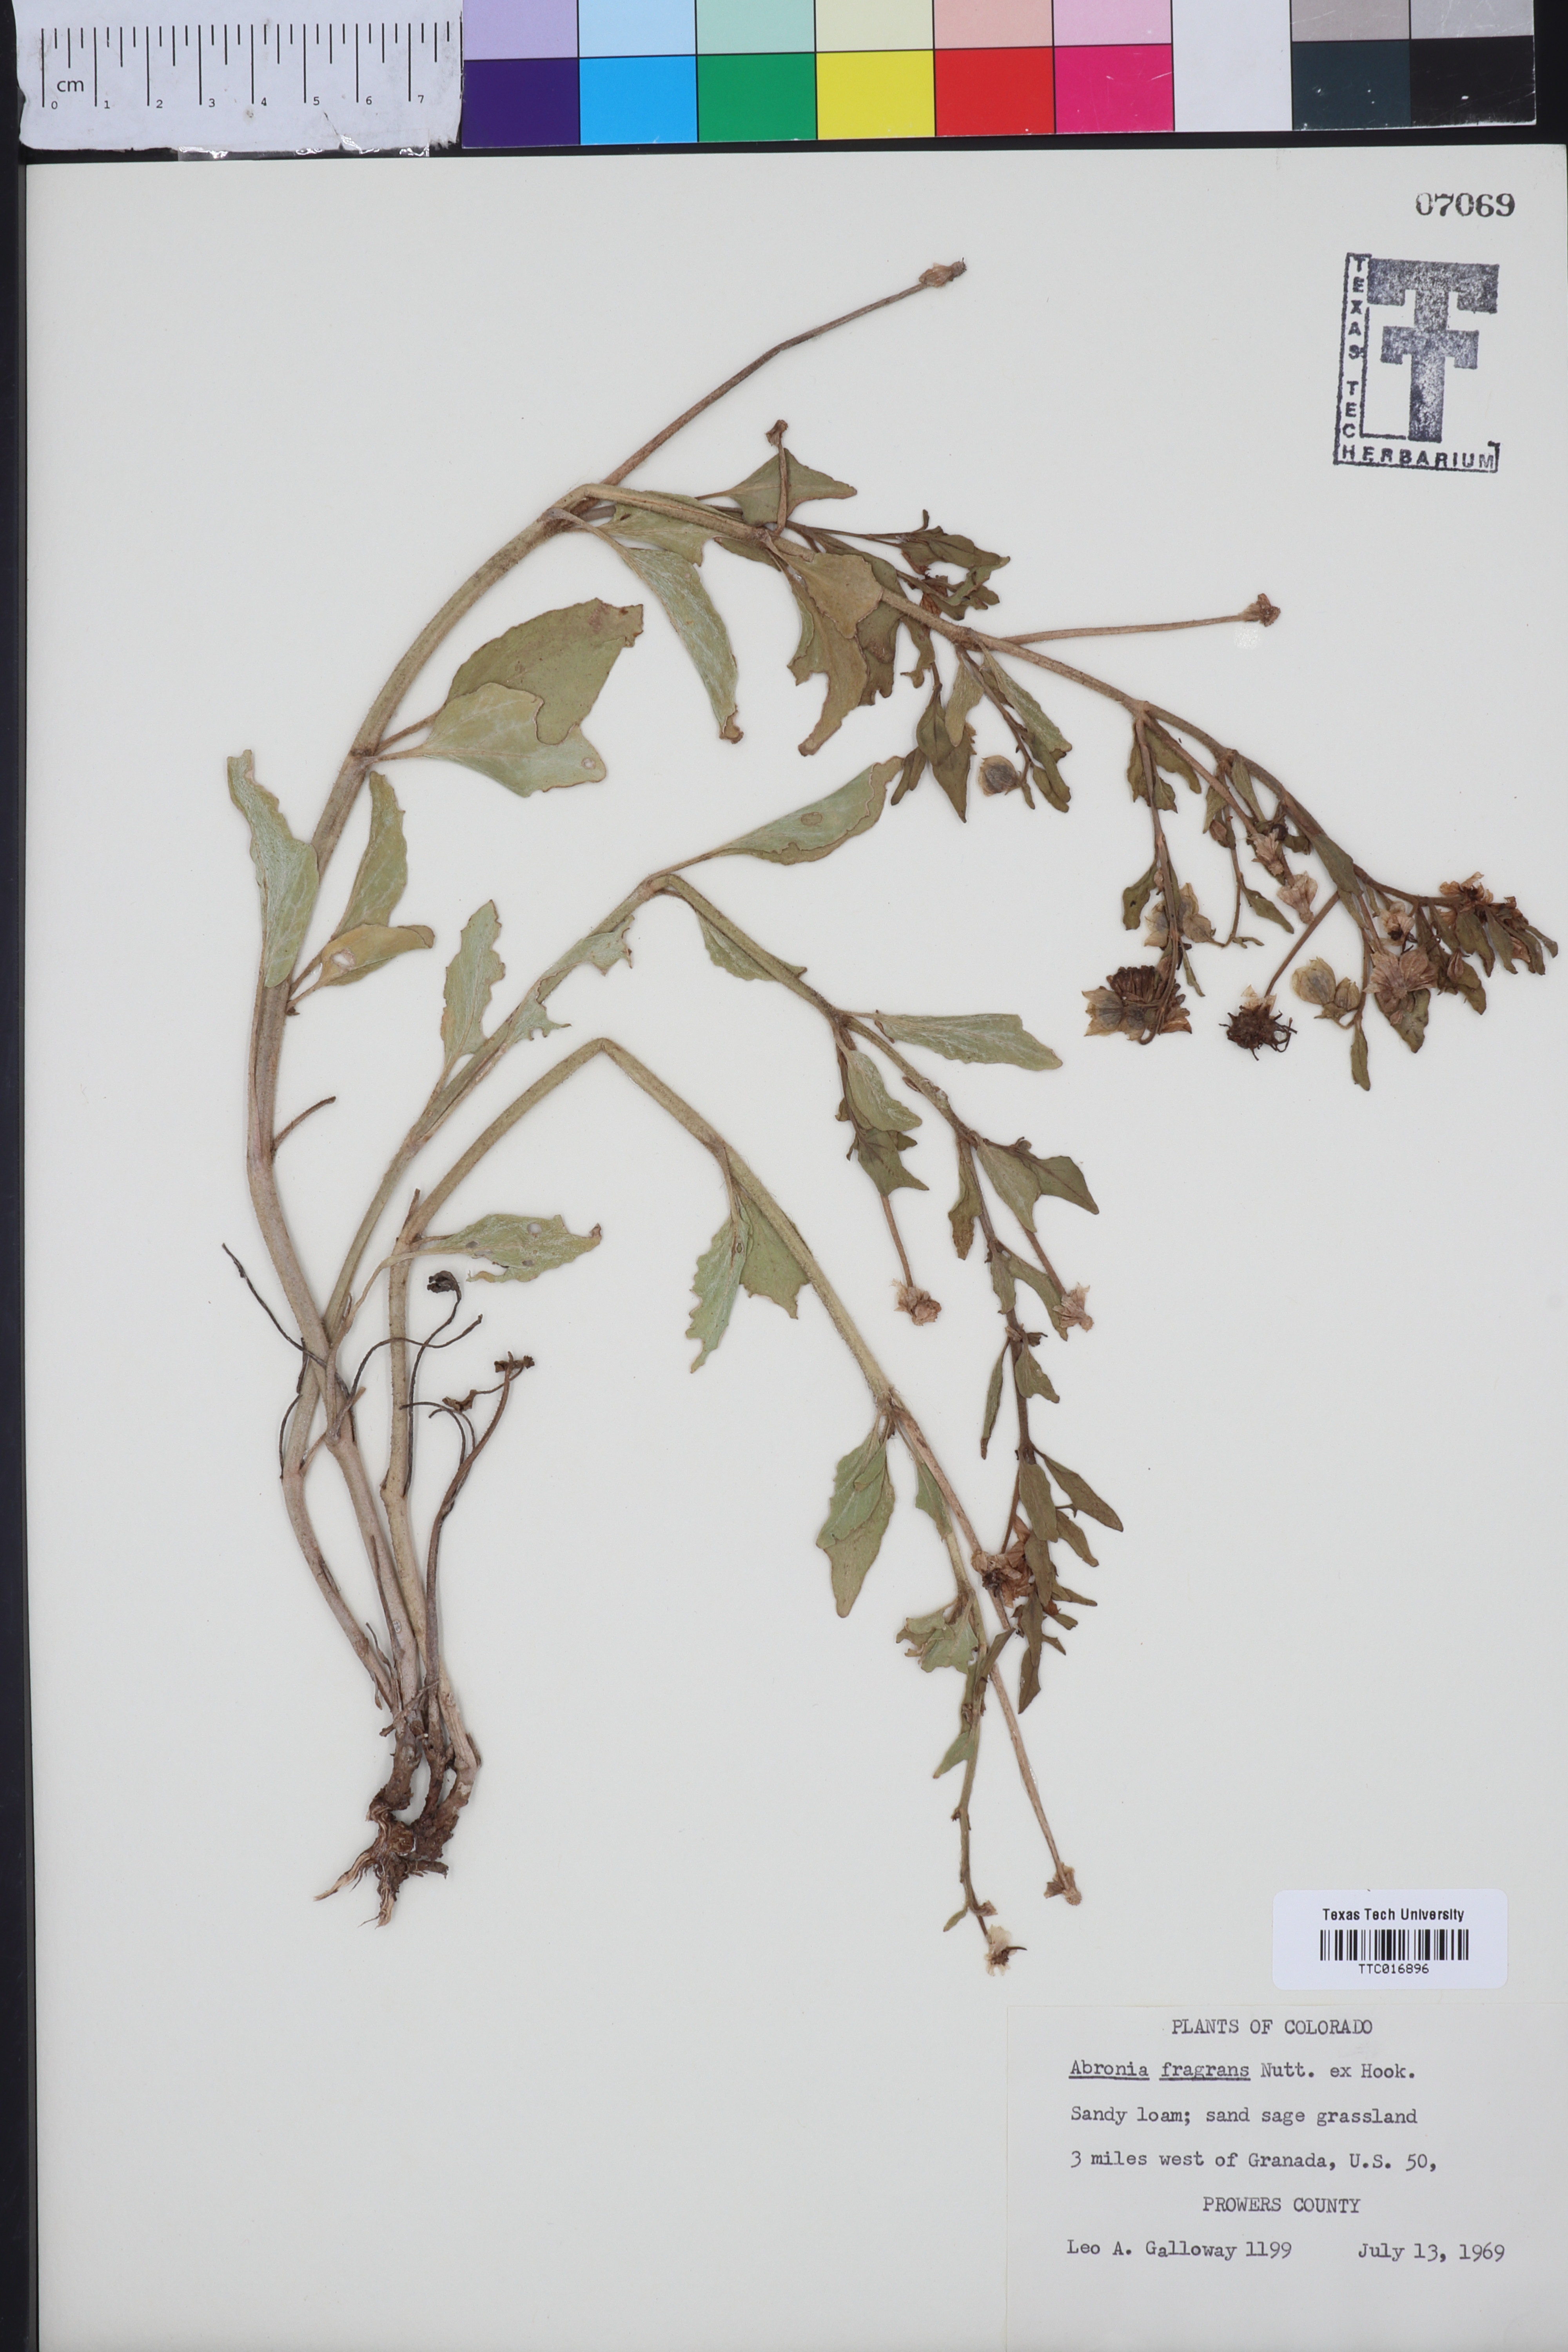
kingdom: Plantae
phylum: Tracheophyta
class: Magnoliopsida
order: Caryophyllales
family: Nyctaginaceae
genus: Abronia
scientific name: Abronia fragrans
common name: Fragrant sand-verbena
